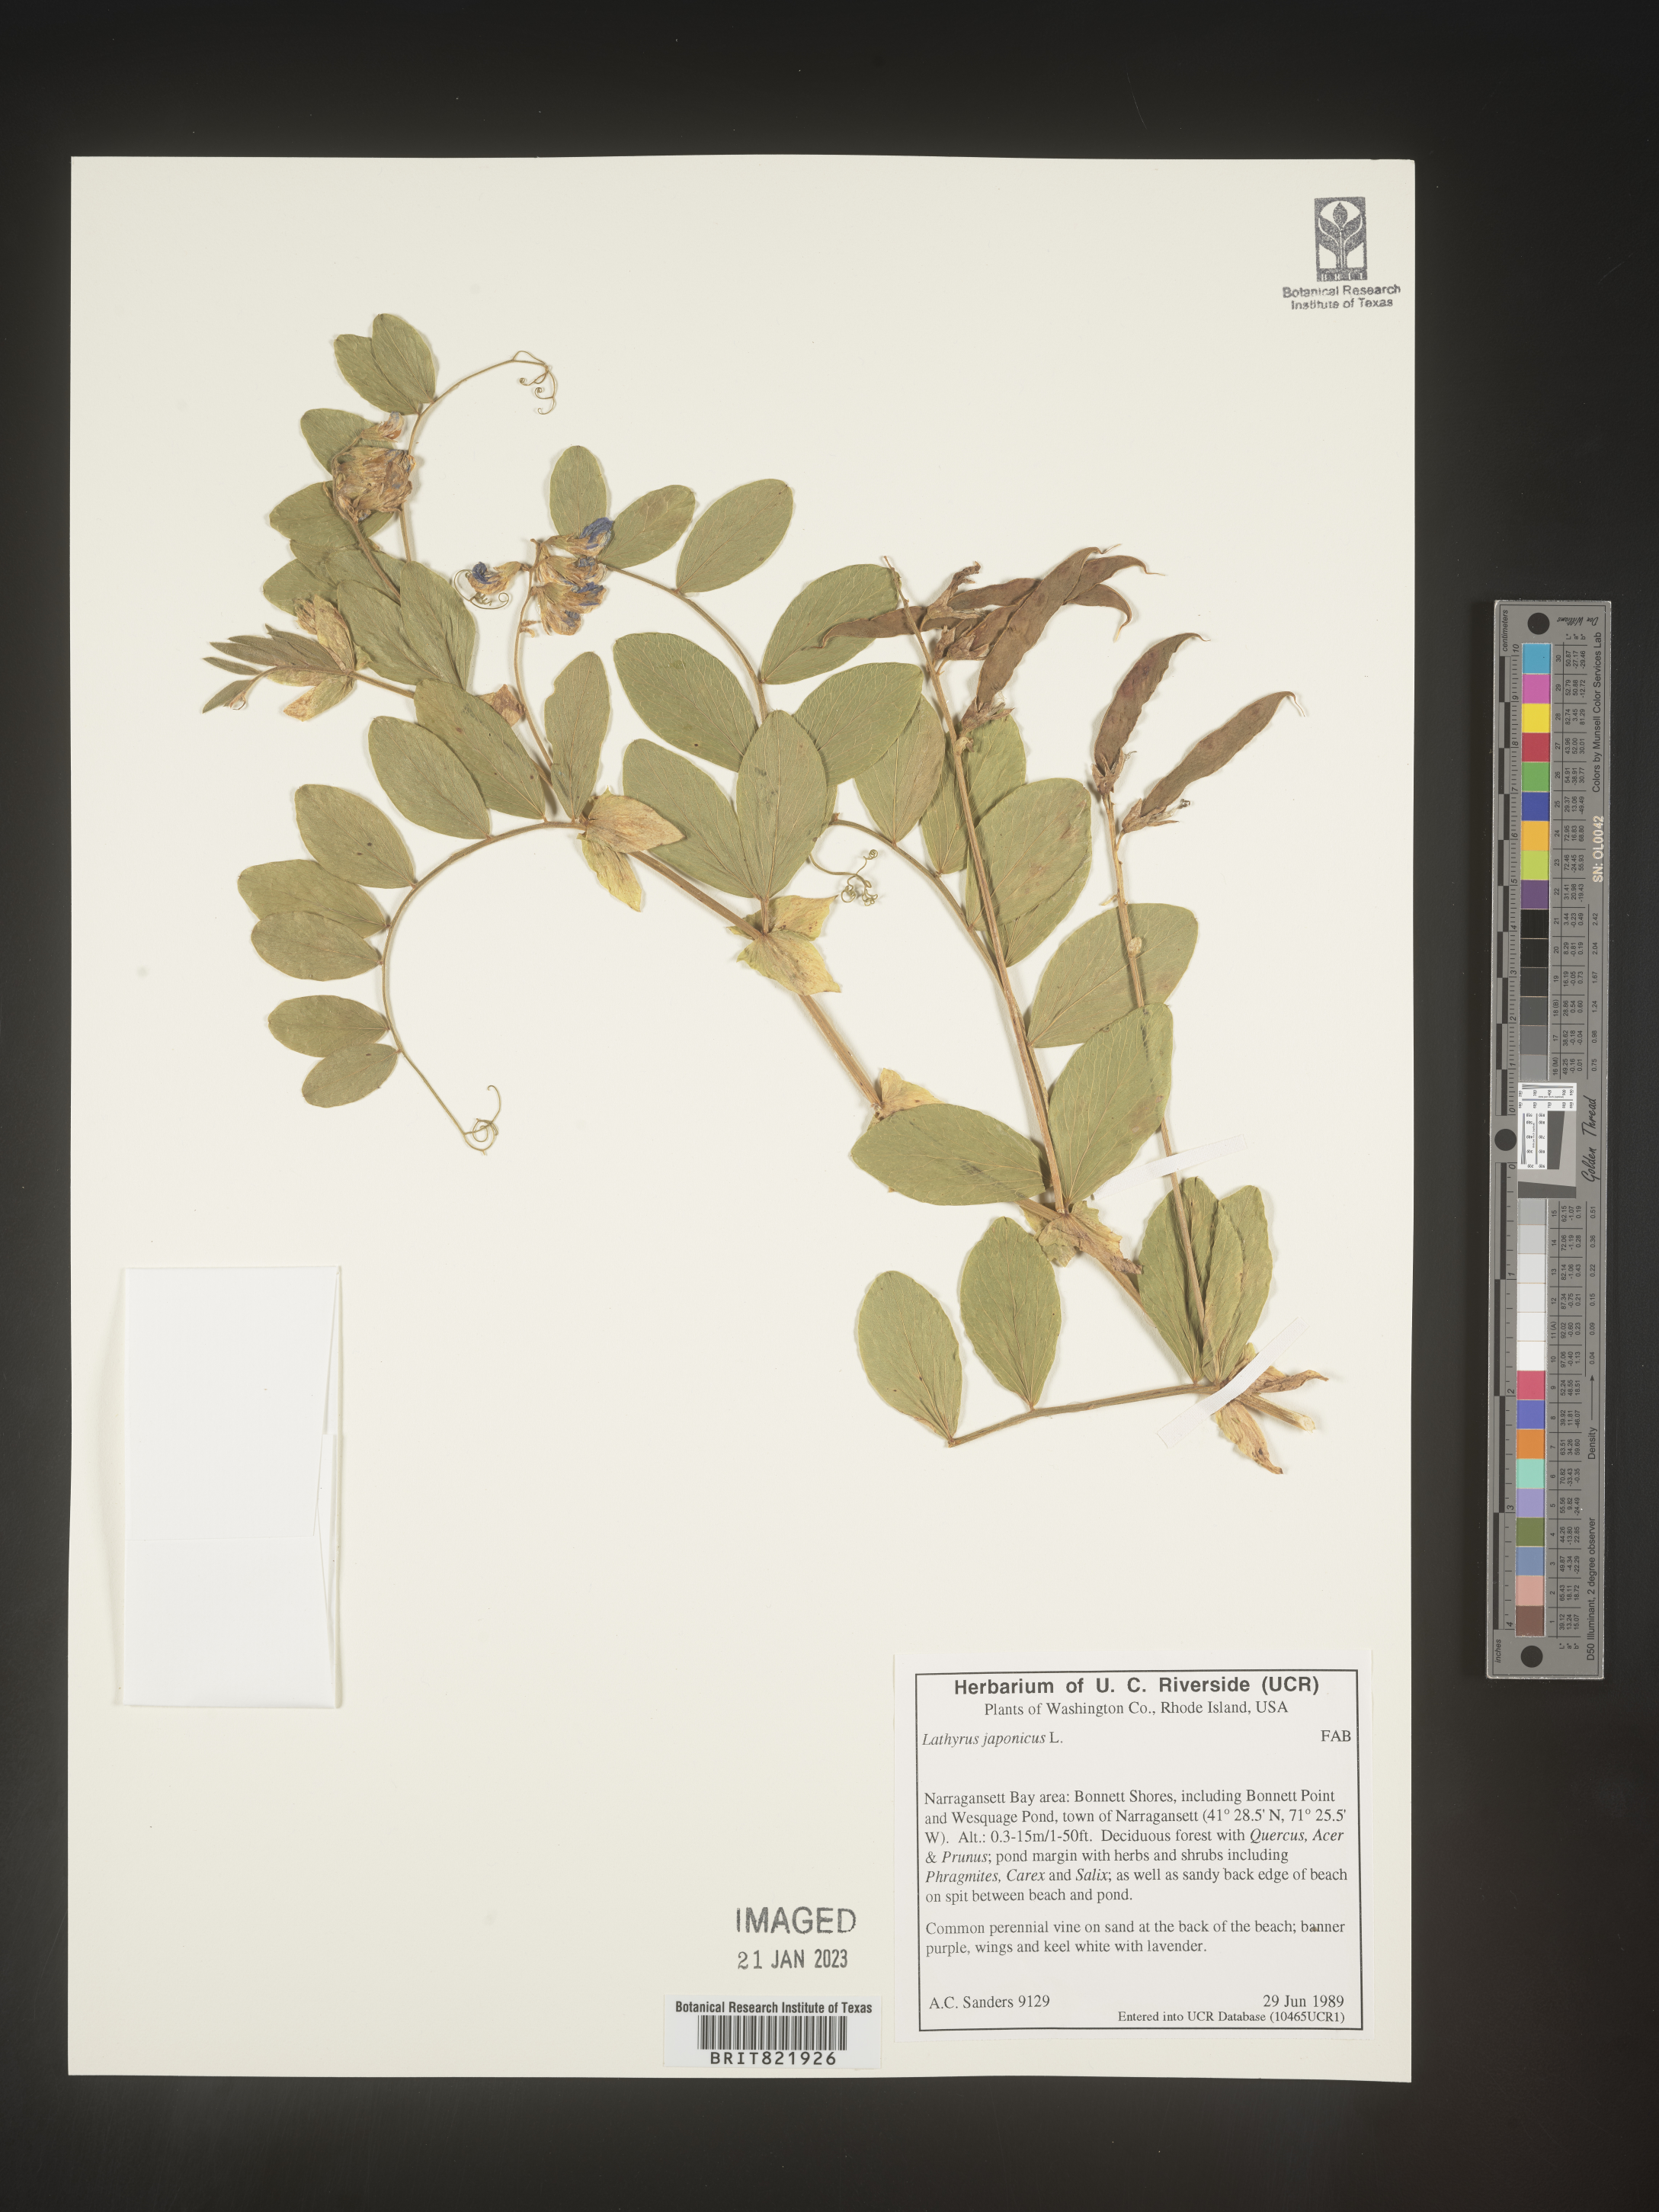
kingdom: Plantae
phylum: Tracheophyta
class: Magnoliopsida
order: Fabales
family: Fabaceae
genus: Lathyrus
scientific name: Lathyrus
